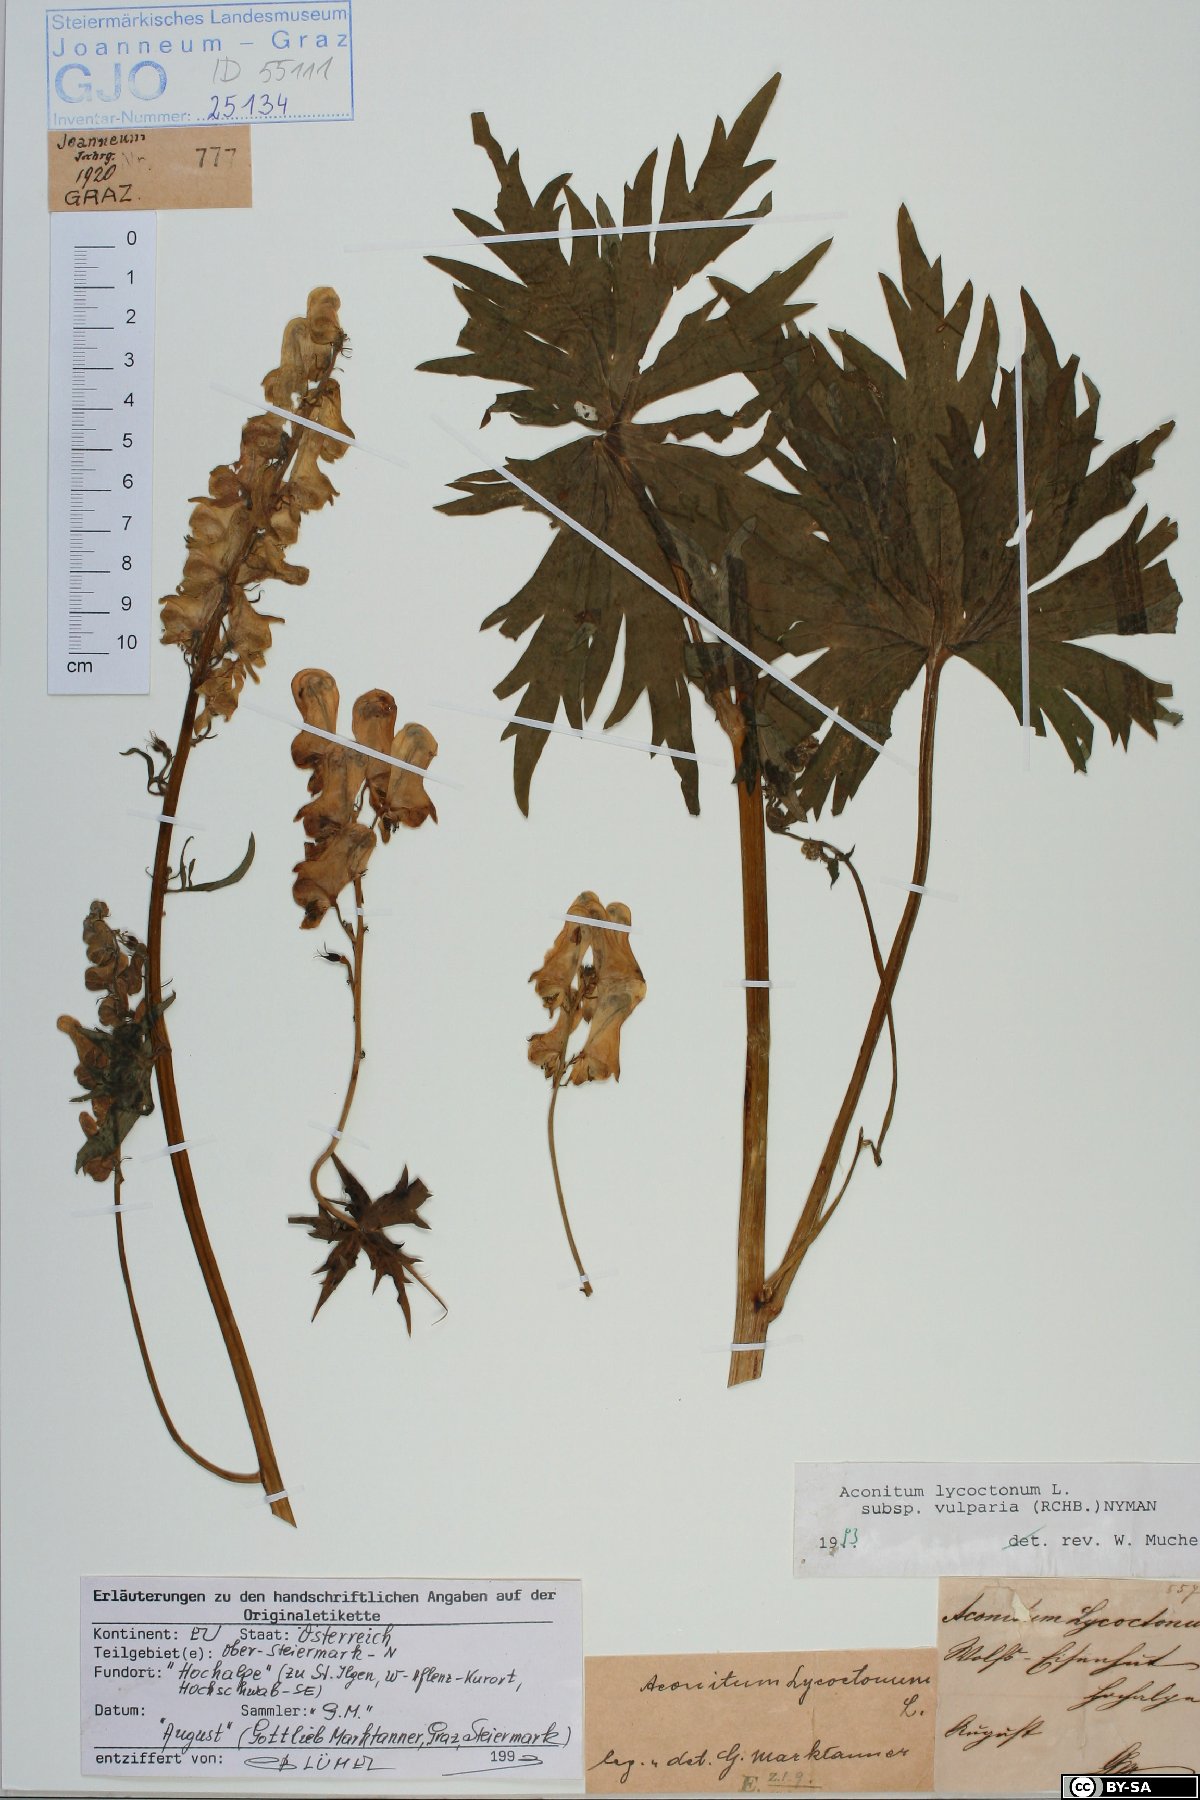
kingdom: Plantae
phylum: Tracheophyta
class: Magnoliopsida
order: Ranunculales
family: Ranunculaceae
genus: Aconitum
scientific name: Aconitum lycoctonum
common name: Wolf's-bane
